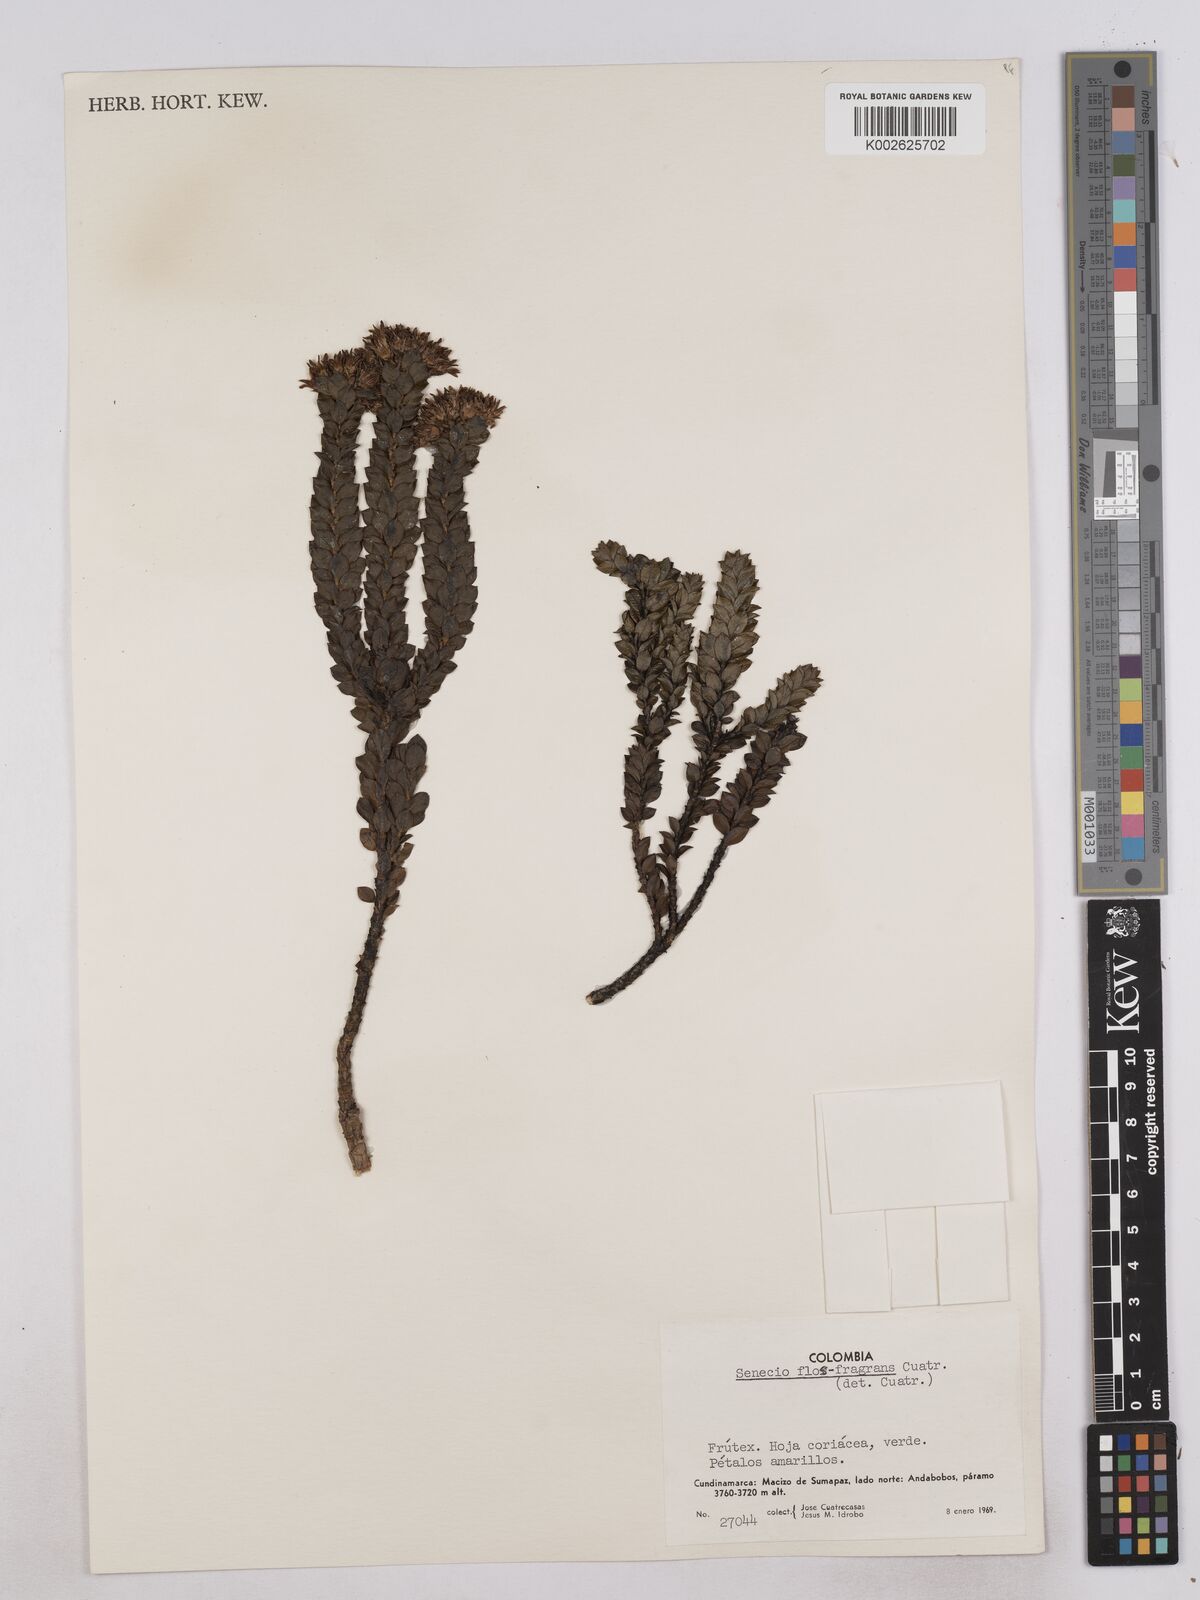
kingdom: Plantae
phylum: Tracheophyta
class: Magnoliopsida
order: Asterales
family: Asteraceae
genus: Monticalia
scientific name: Monticalia flosfragrans
